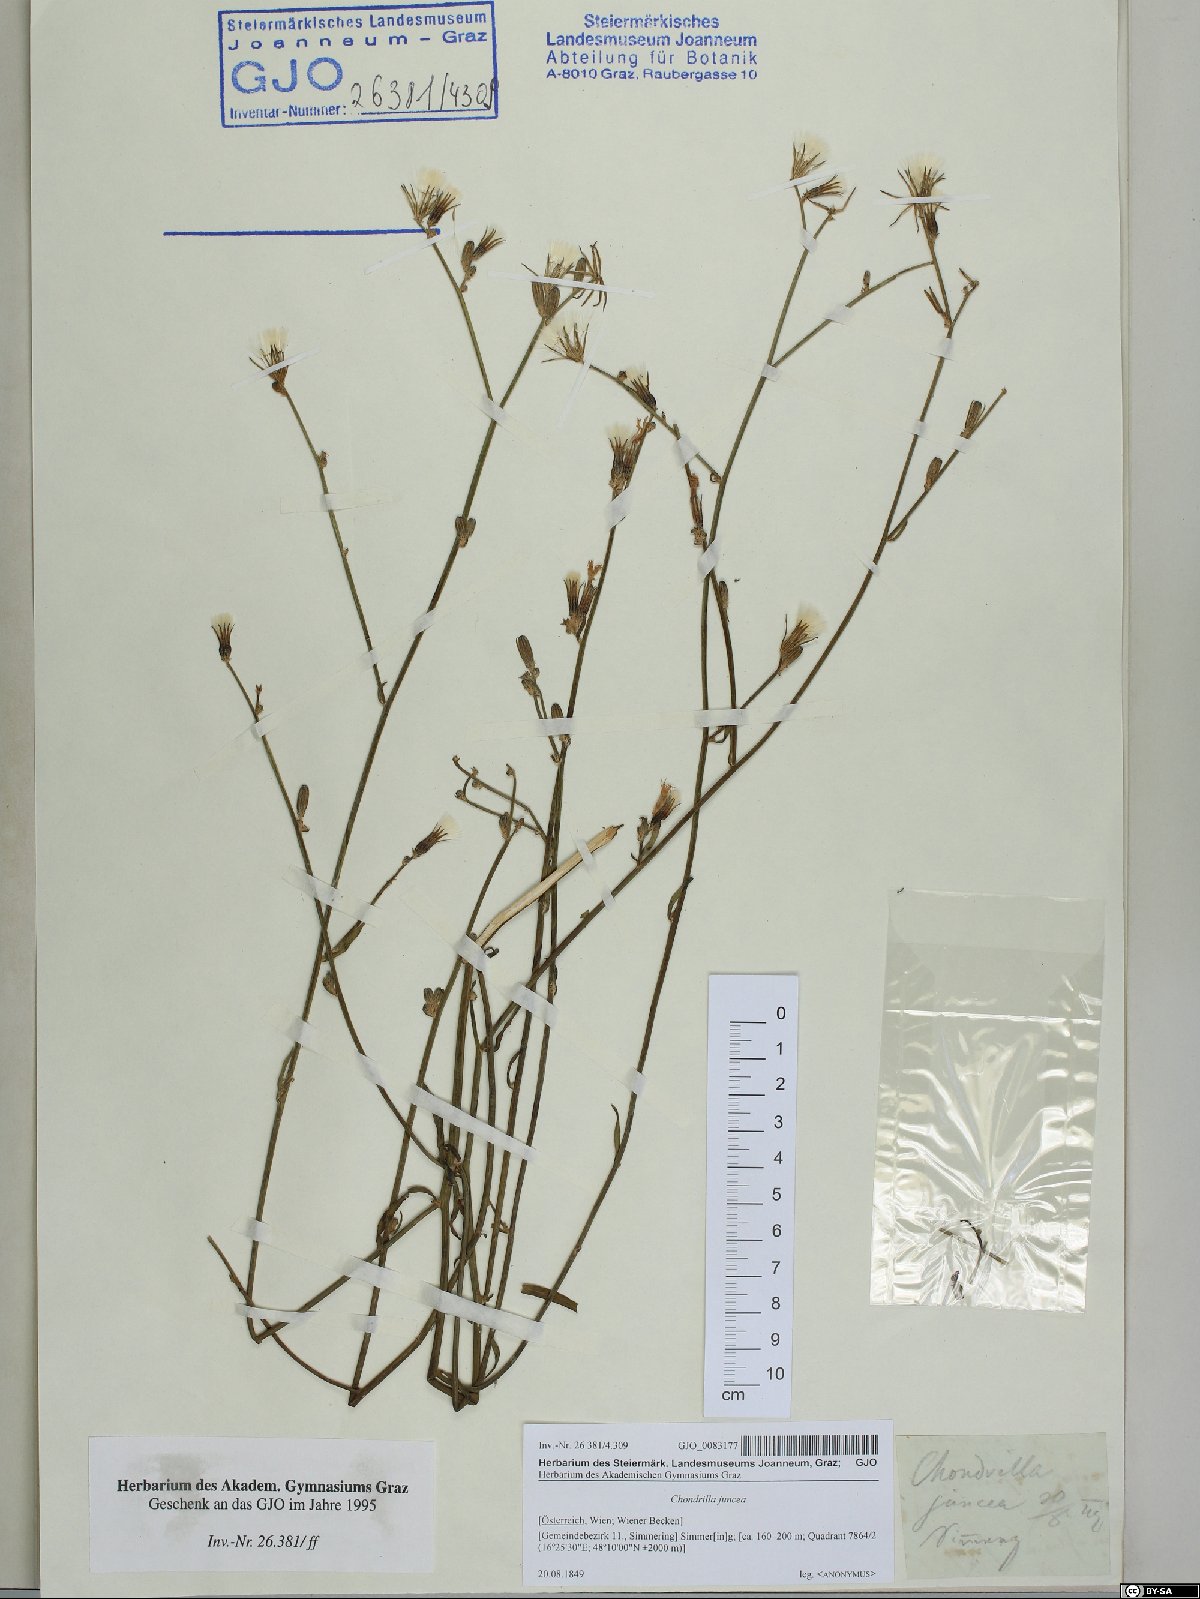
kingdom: Plantae
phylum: Tracheophyta
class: Magnoliopsida
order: Asterales
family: Asteraceae
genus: Chondrilla
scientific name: Chondrilla juncea
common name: Skeleton weed
